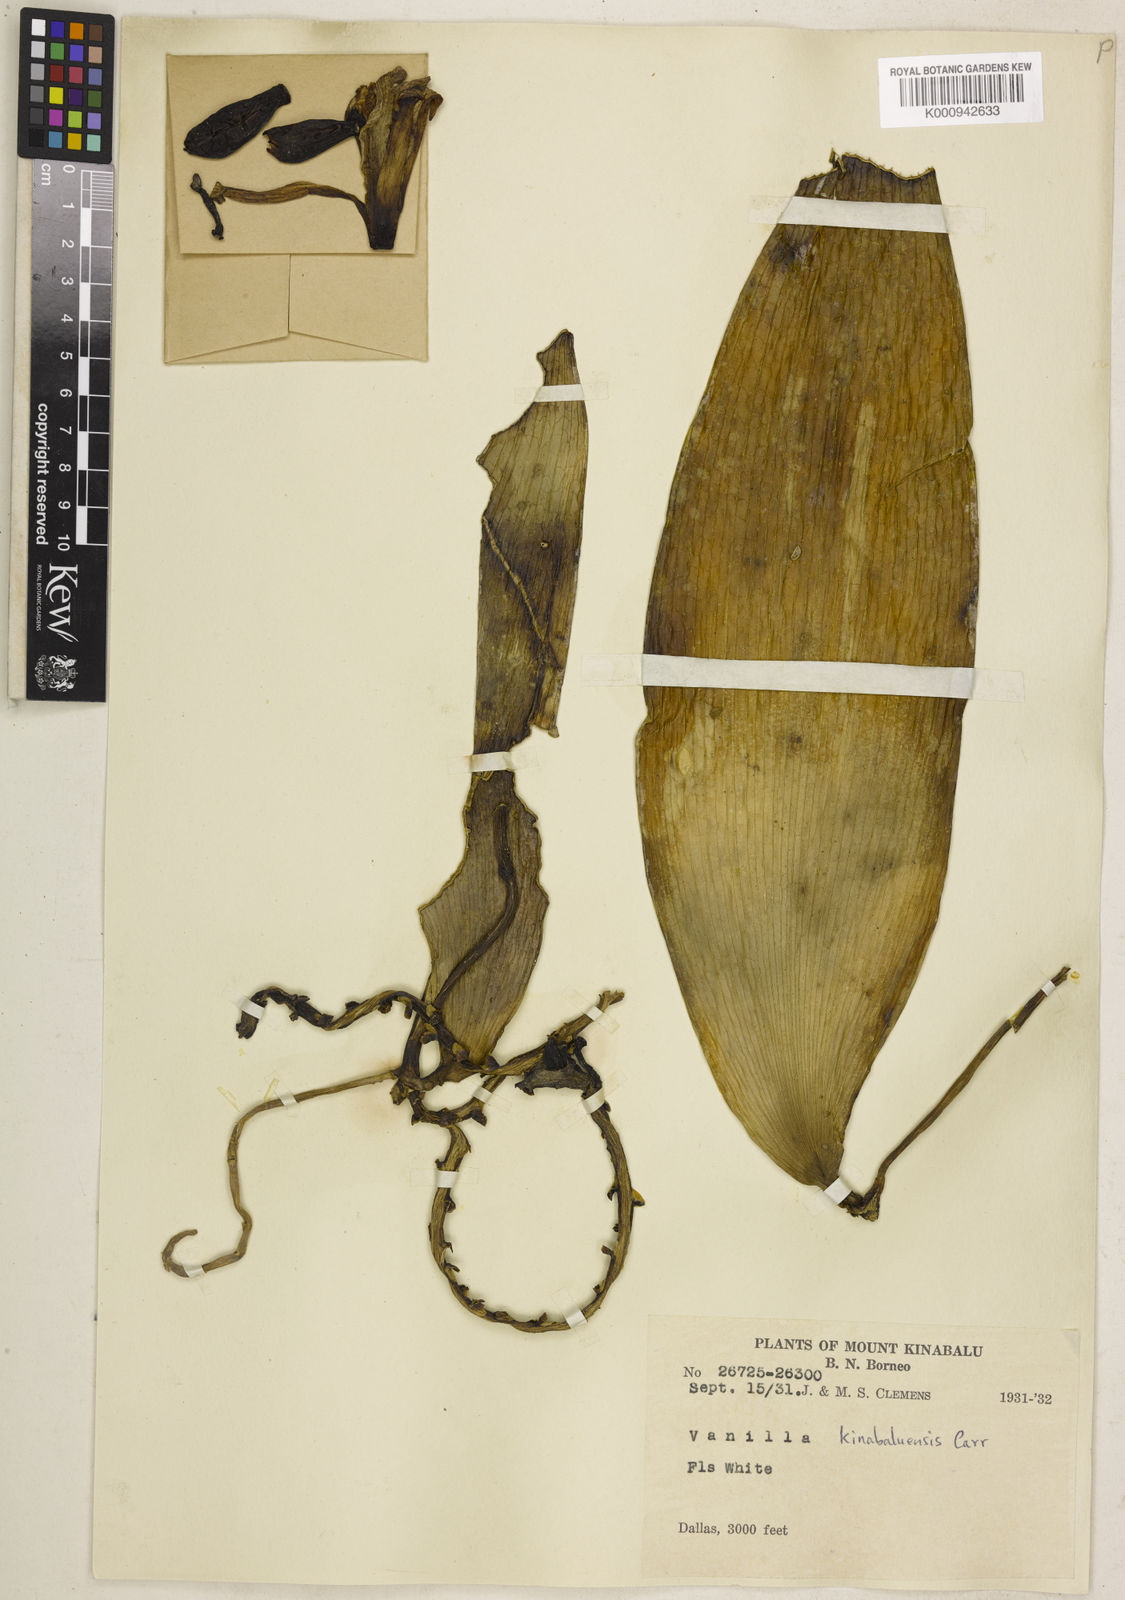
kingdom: Plantae
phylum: Tracheophyta
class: Liliopsida
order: Asparagales
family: Orchidaceae
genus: Vanilla
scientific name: Vanilla kinabaluensis
